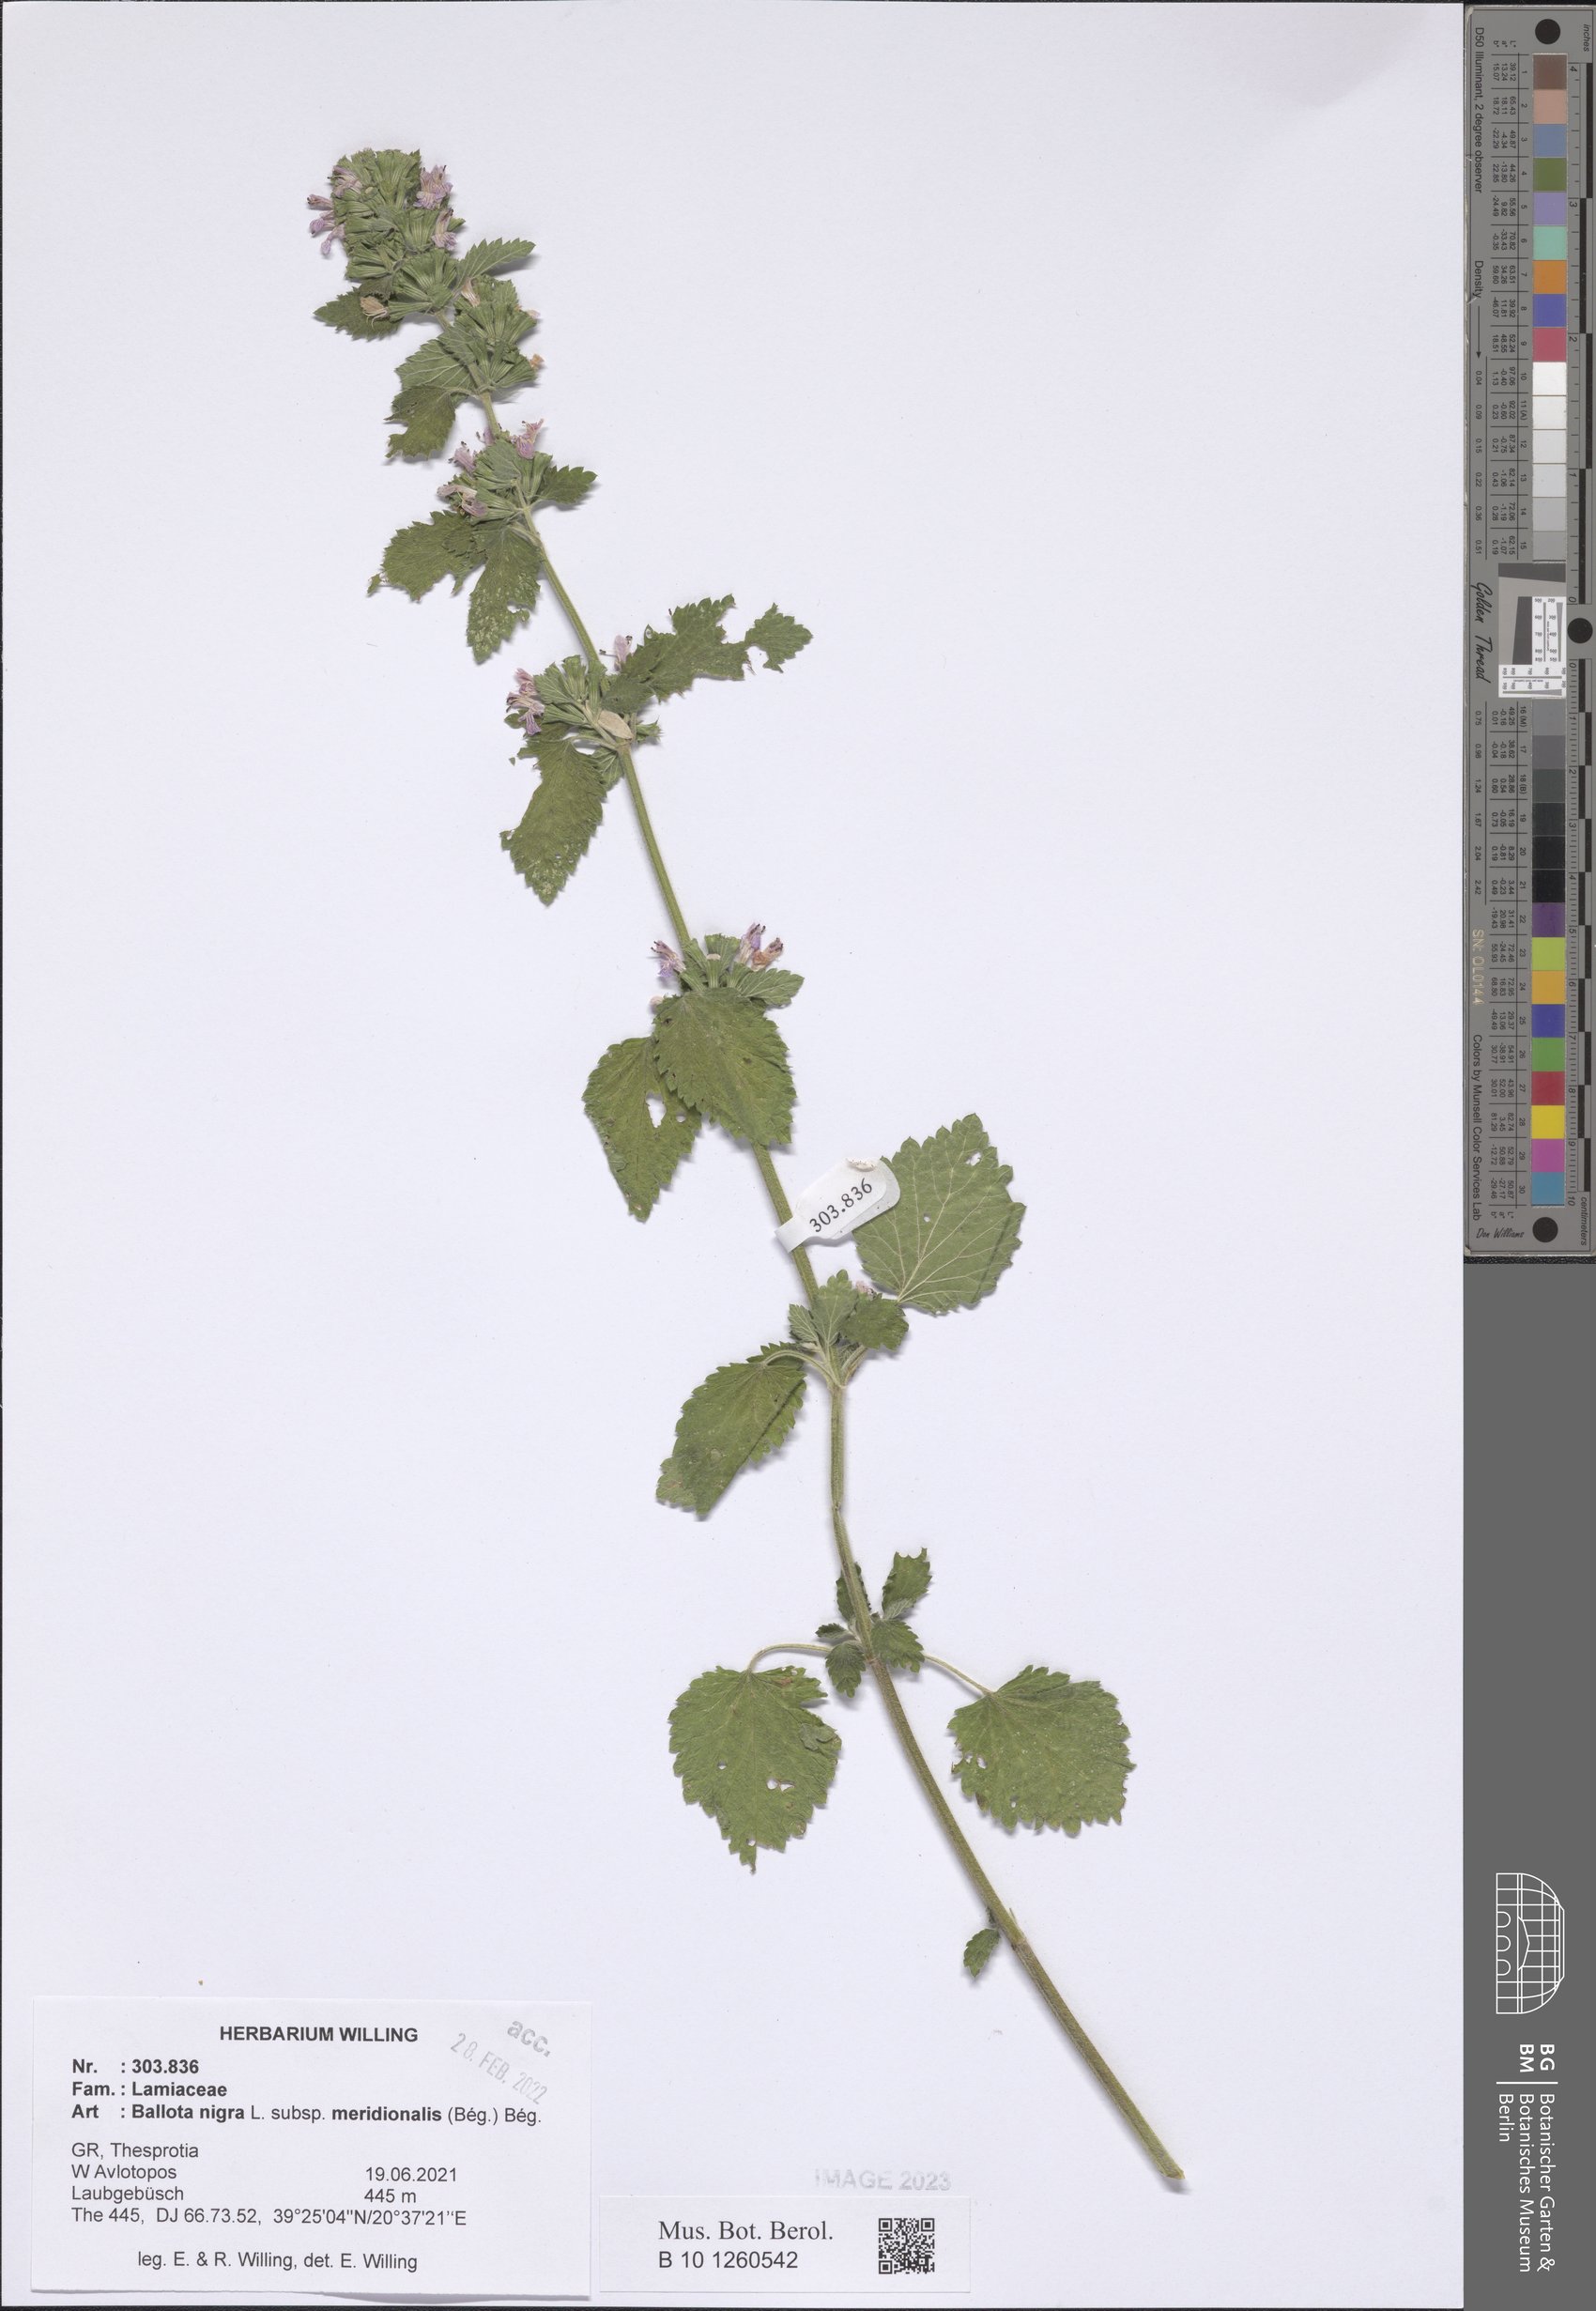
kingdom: Plantae
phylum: Tracheophyta
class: Magnoliopsida
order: Lamiales
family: Lamiaceae
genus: Ballota
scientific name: Ballota nigra
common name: Black horehound
